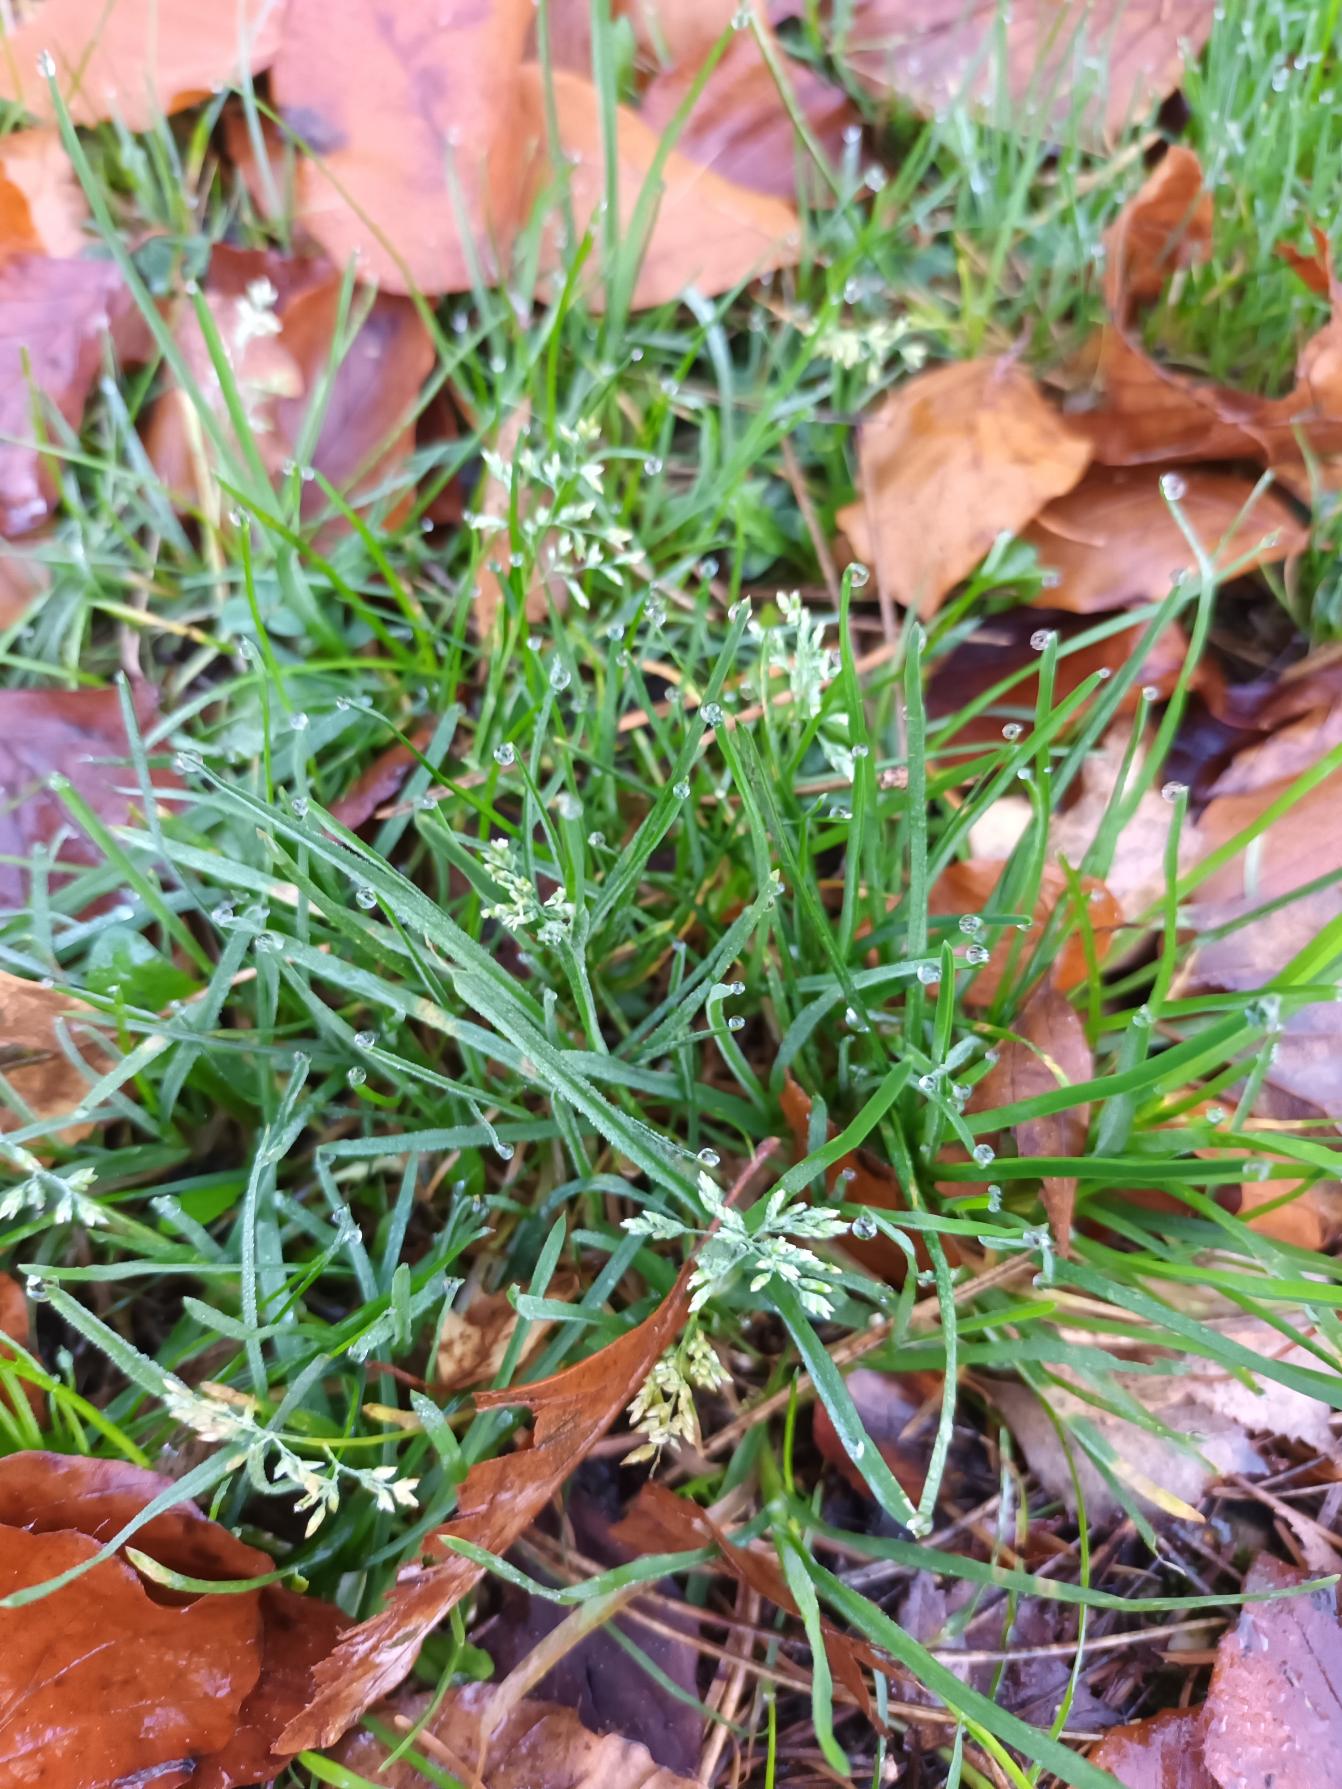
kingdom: Plantae
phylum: Tracheophyta
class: Liliopsida
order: Poales
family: Poaceae
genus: Poa
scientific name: Poa annua
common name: Enårig rapgræs
